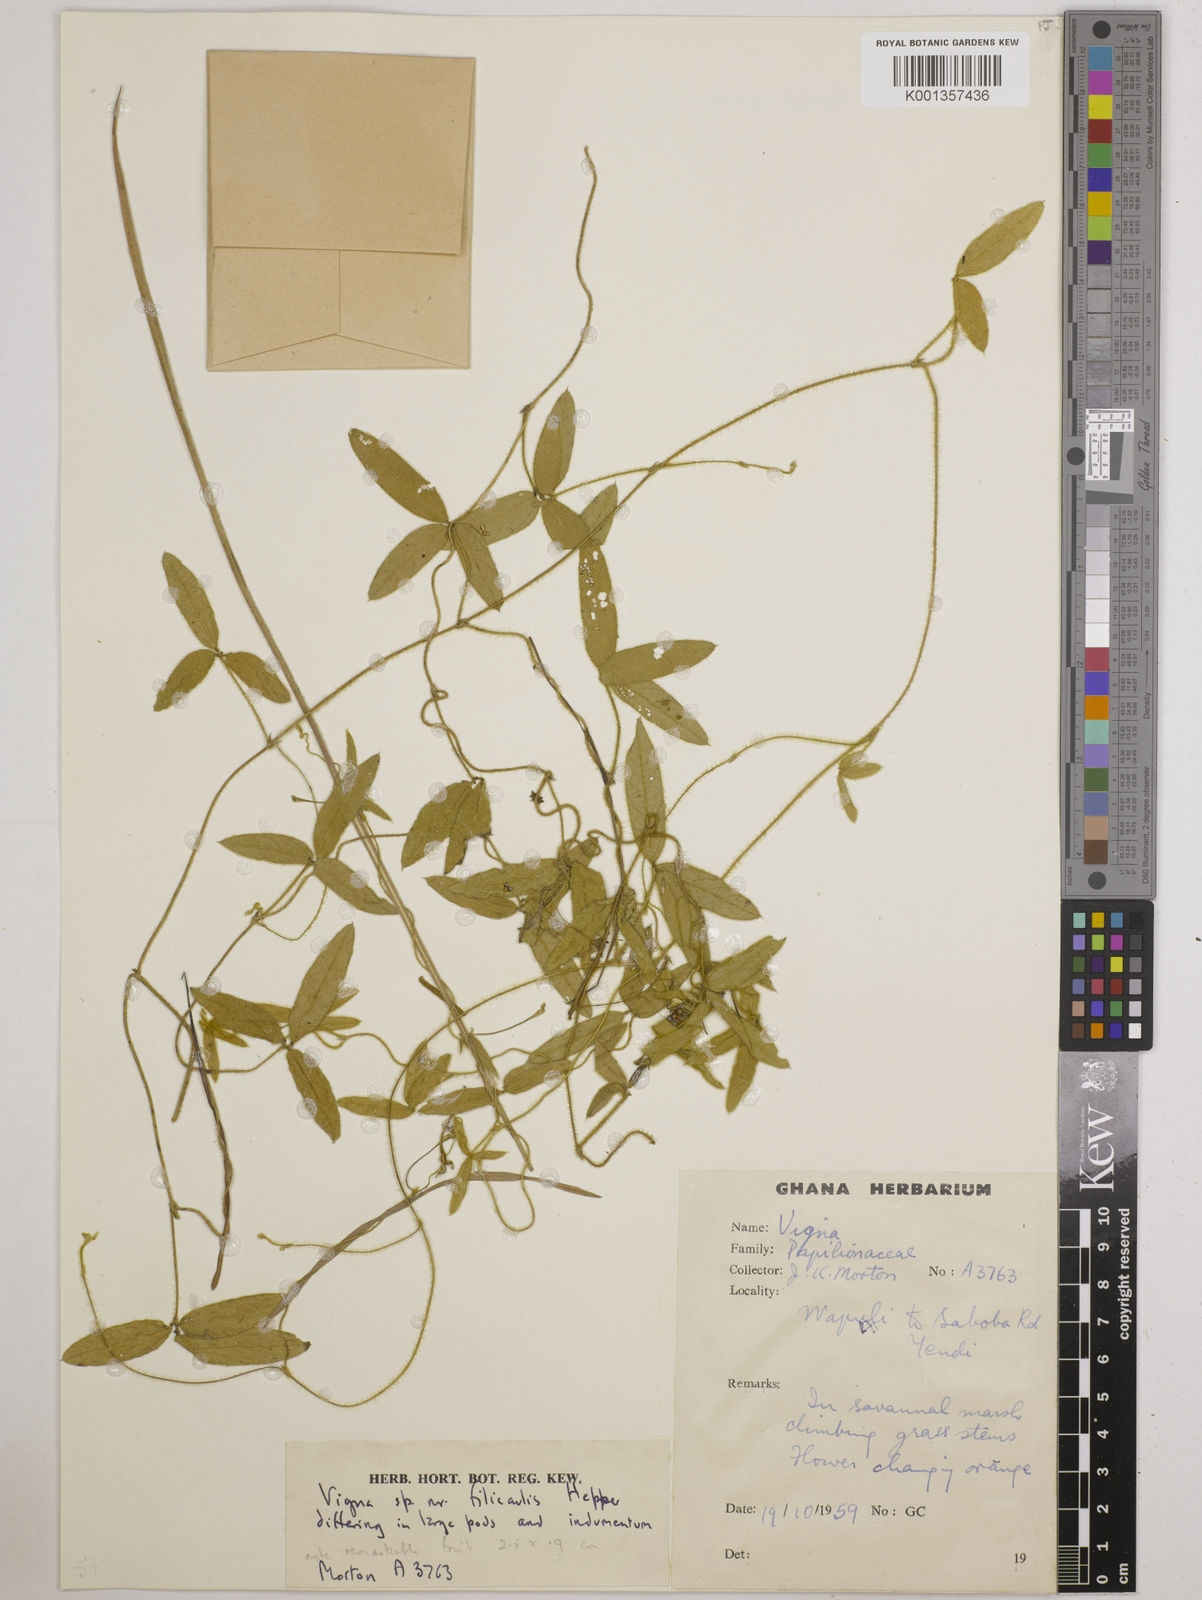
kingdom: Plantae
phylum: Tracheophyta
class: Magnoliopsida
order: Fabales
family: Fabaceae
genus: Vigna
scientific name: Vigna filicaulis
